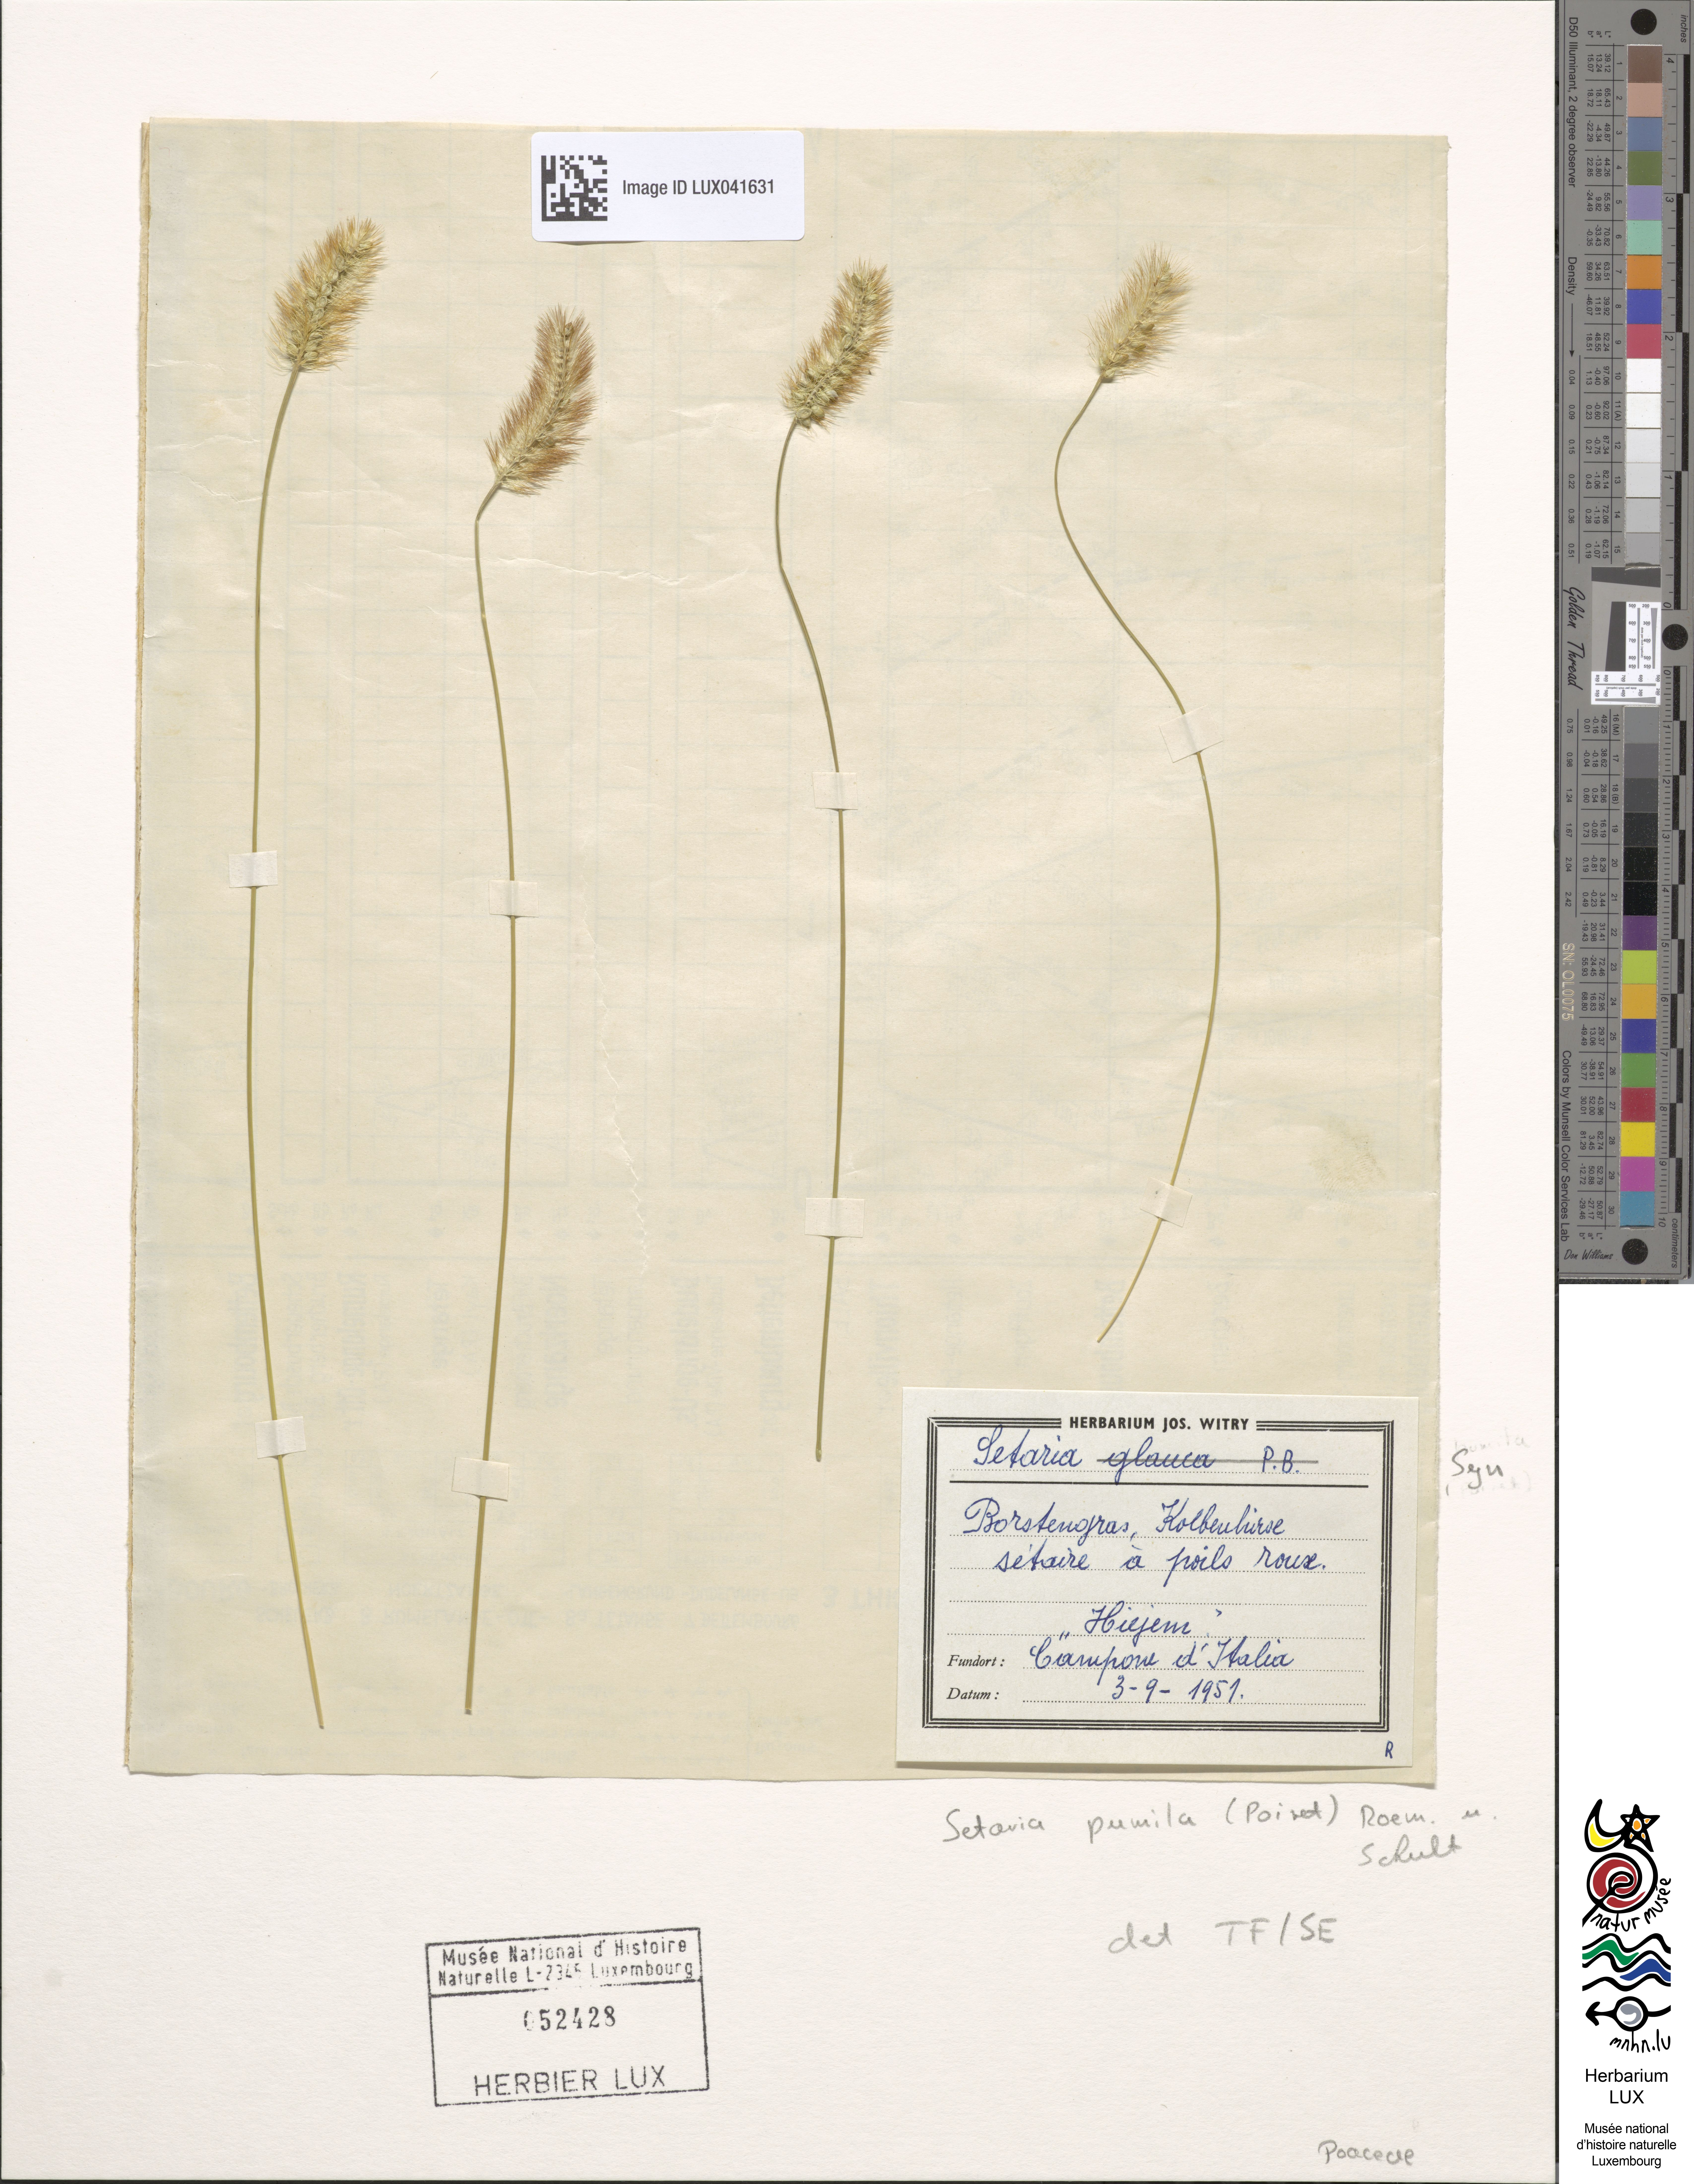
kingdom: Plantae
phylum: Tracheophyta
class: Liliopsida
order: Poales
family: Poaceae
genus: Setaria
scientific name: Setaria pumila
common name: Yellow bristle-grass
